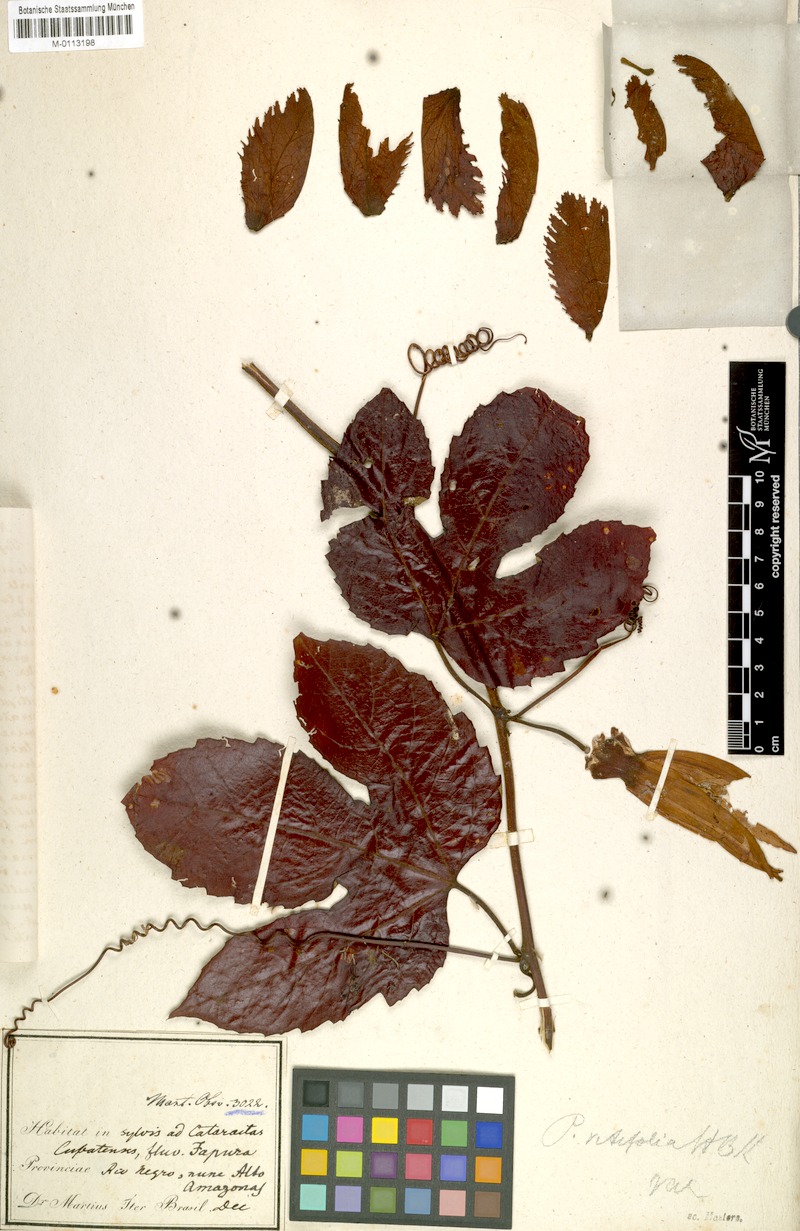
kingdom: Plantae
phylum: Tracheophyta
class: Magnoliopsida
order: Malpighiales
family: Passifloraceae
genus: Passiflora
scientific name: Passiflora vitifolia
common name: Perfumed passionflower
